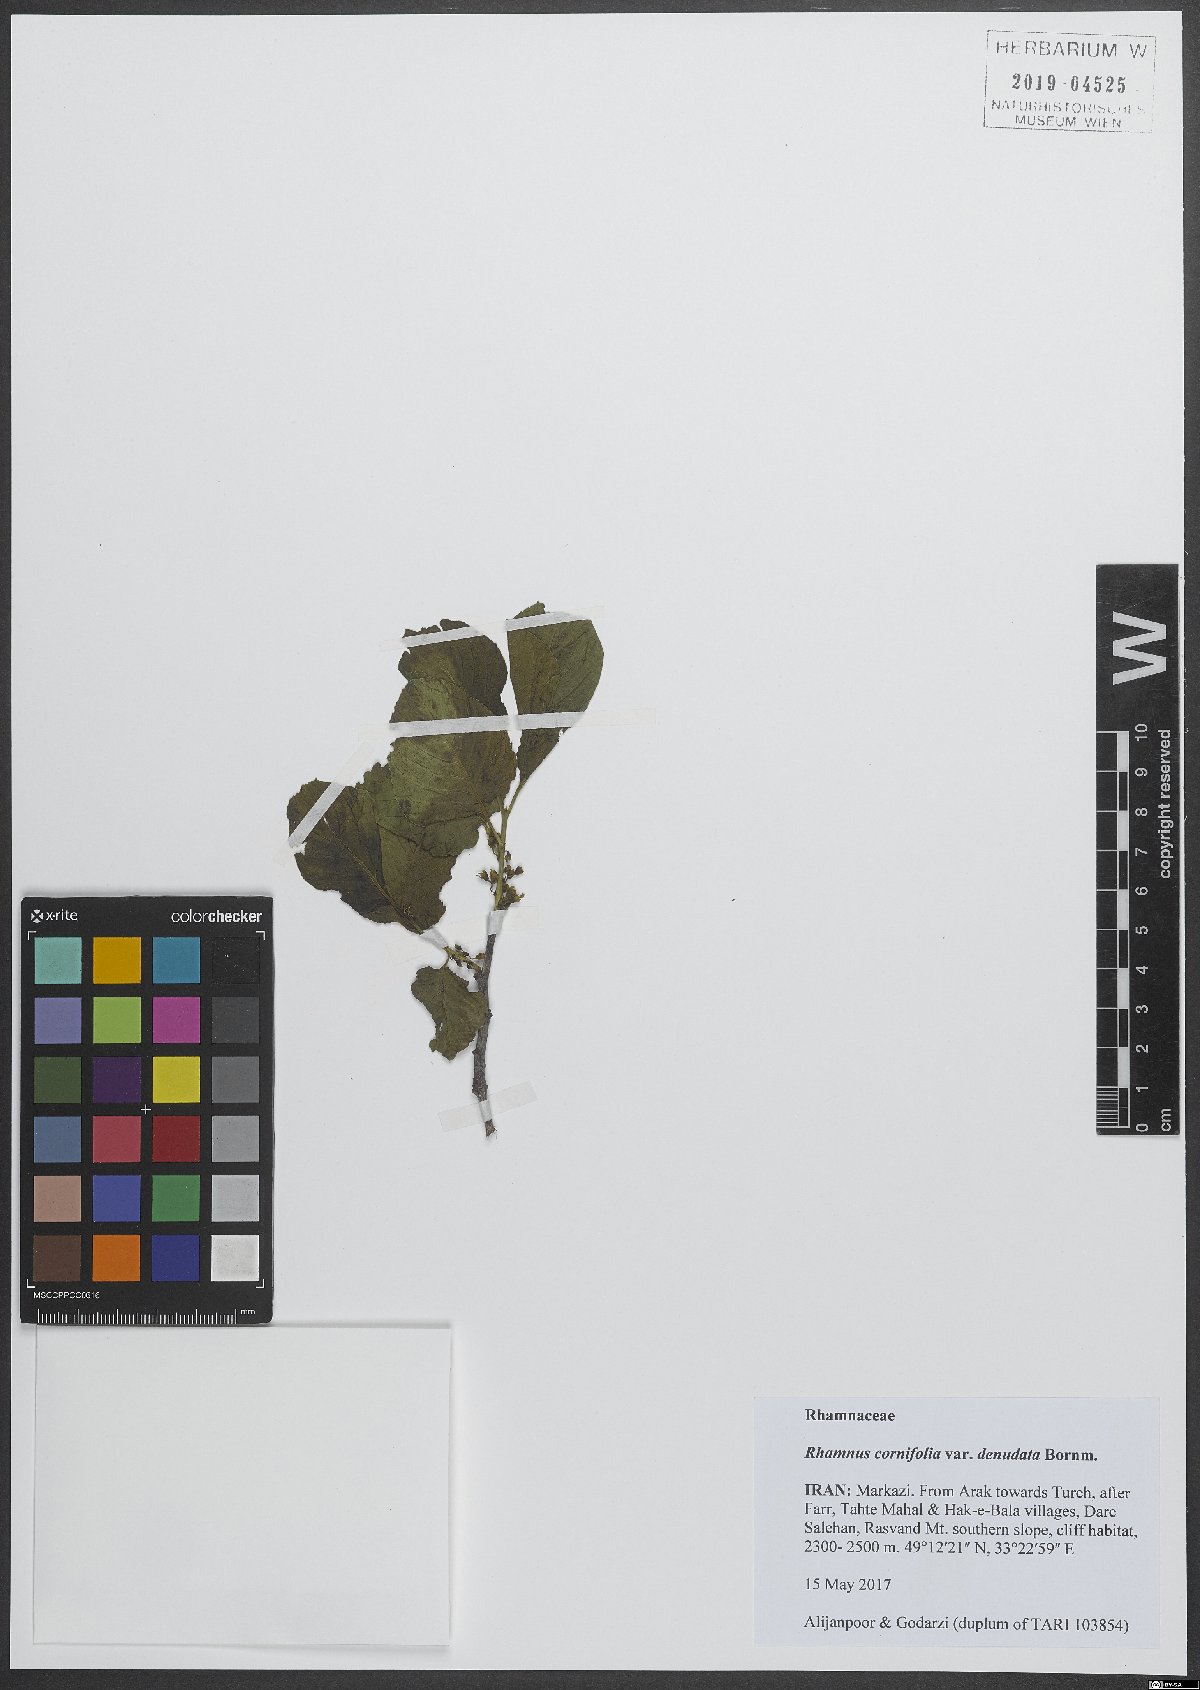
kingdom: Plantae
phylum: Tracheophyta
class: Magnoliopsida
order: Rosales
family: Rhamnaceae
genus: Atadinus
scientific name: Atadinus cornifolius
